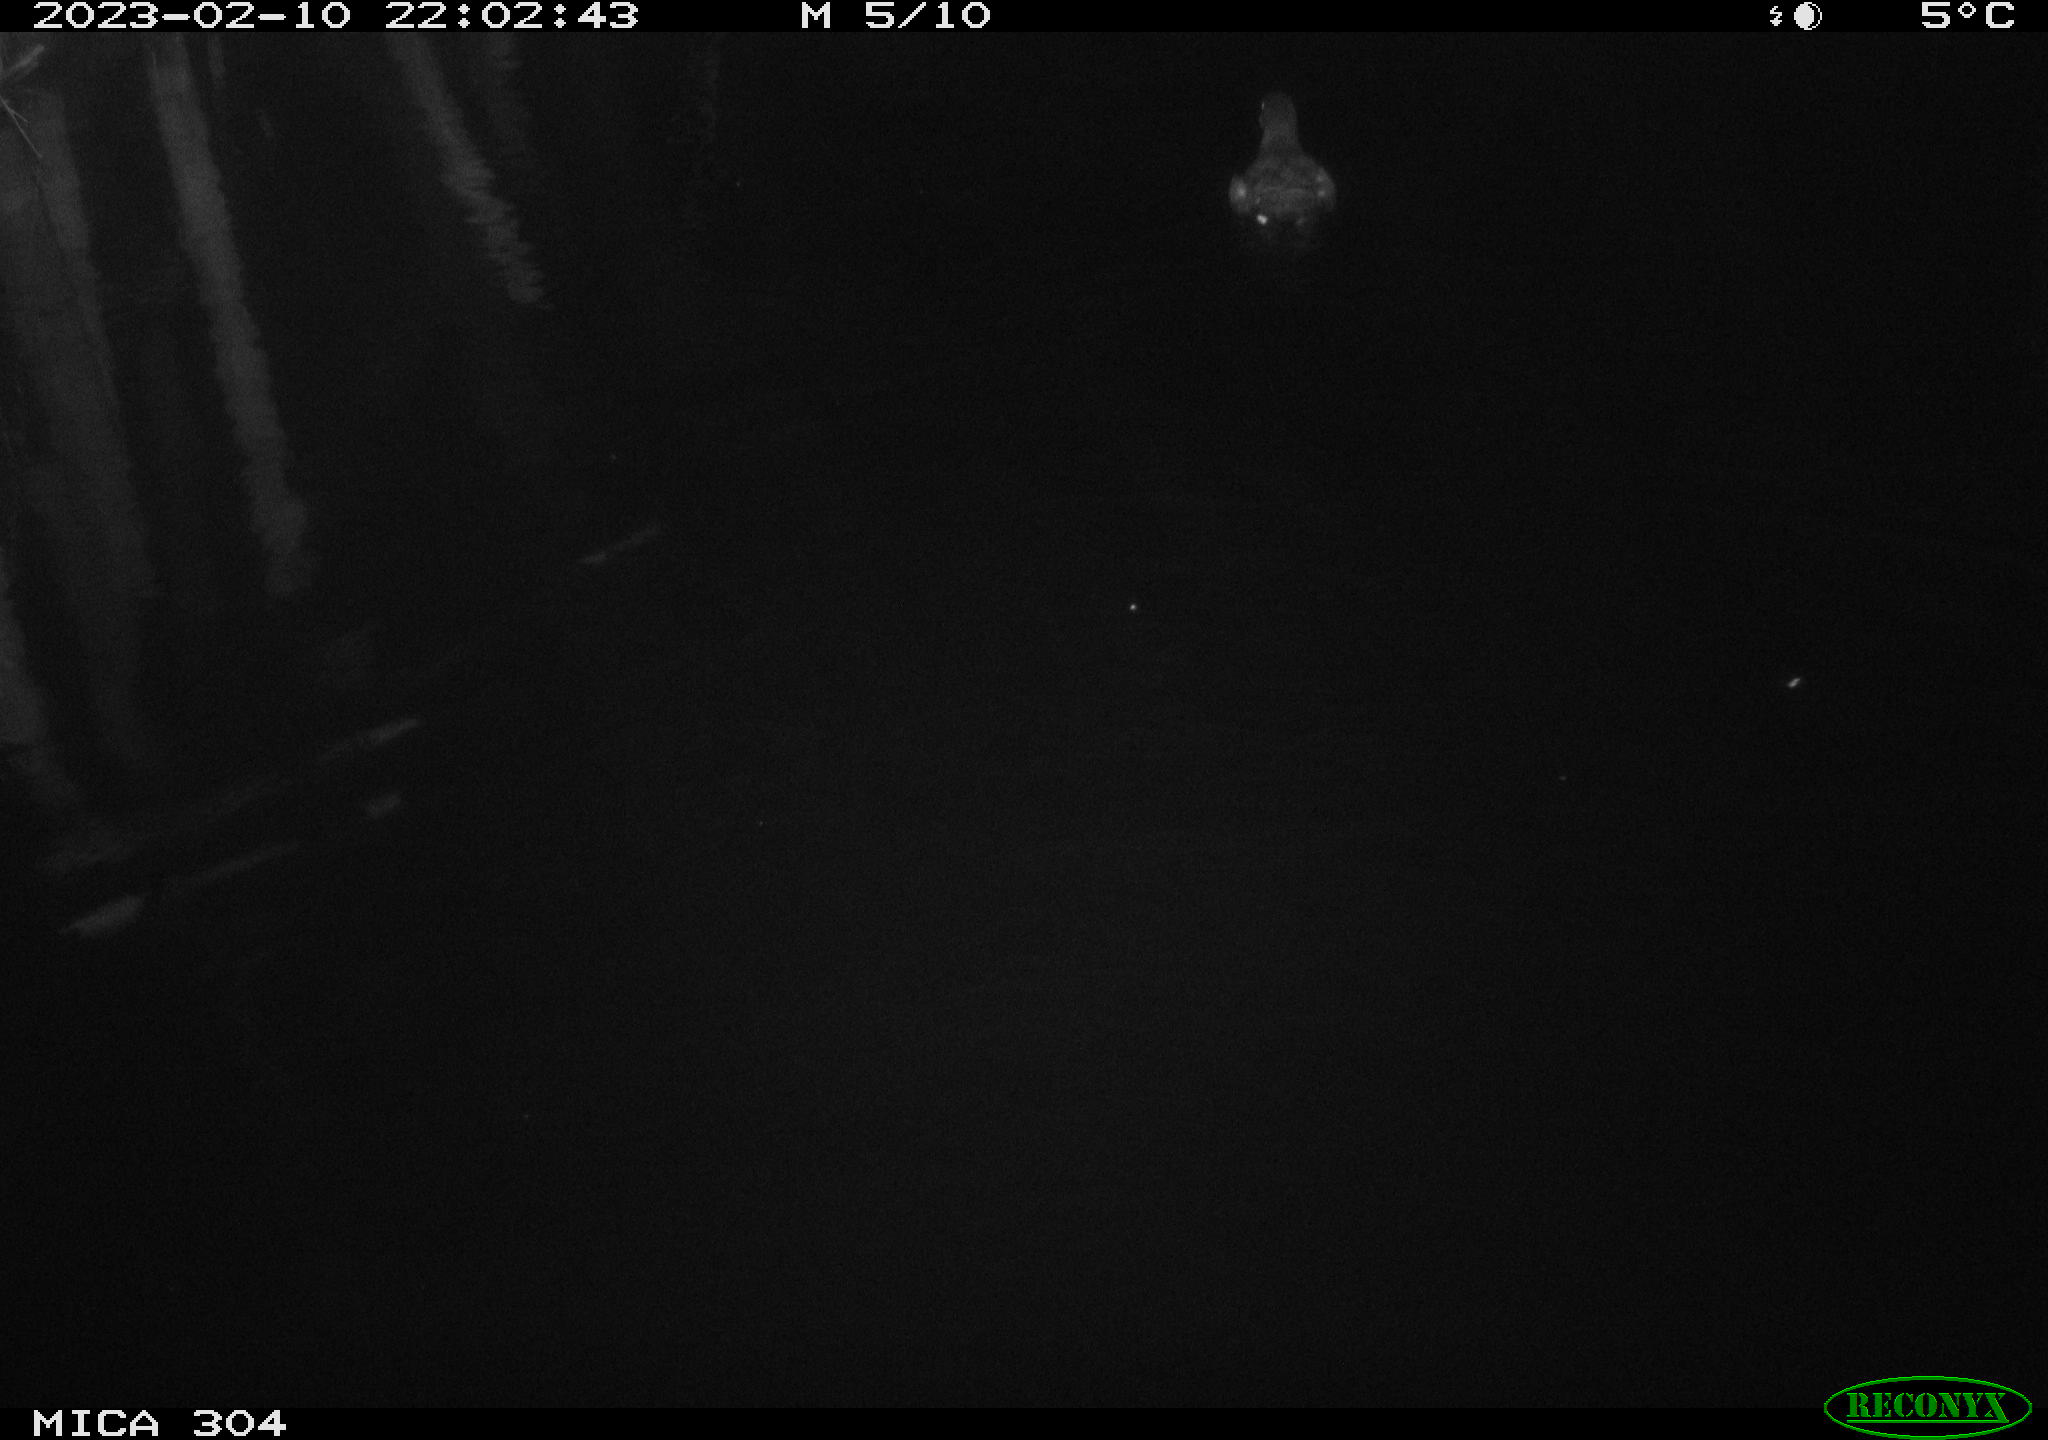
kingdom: Animalia
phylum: Chordata
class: Aves
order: Gruiformes
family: Rallidae
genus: Gallinula
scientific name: Gallinula chloropus
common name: Common moorhen
